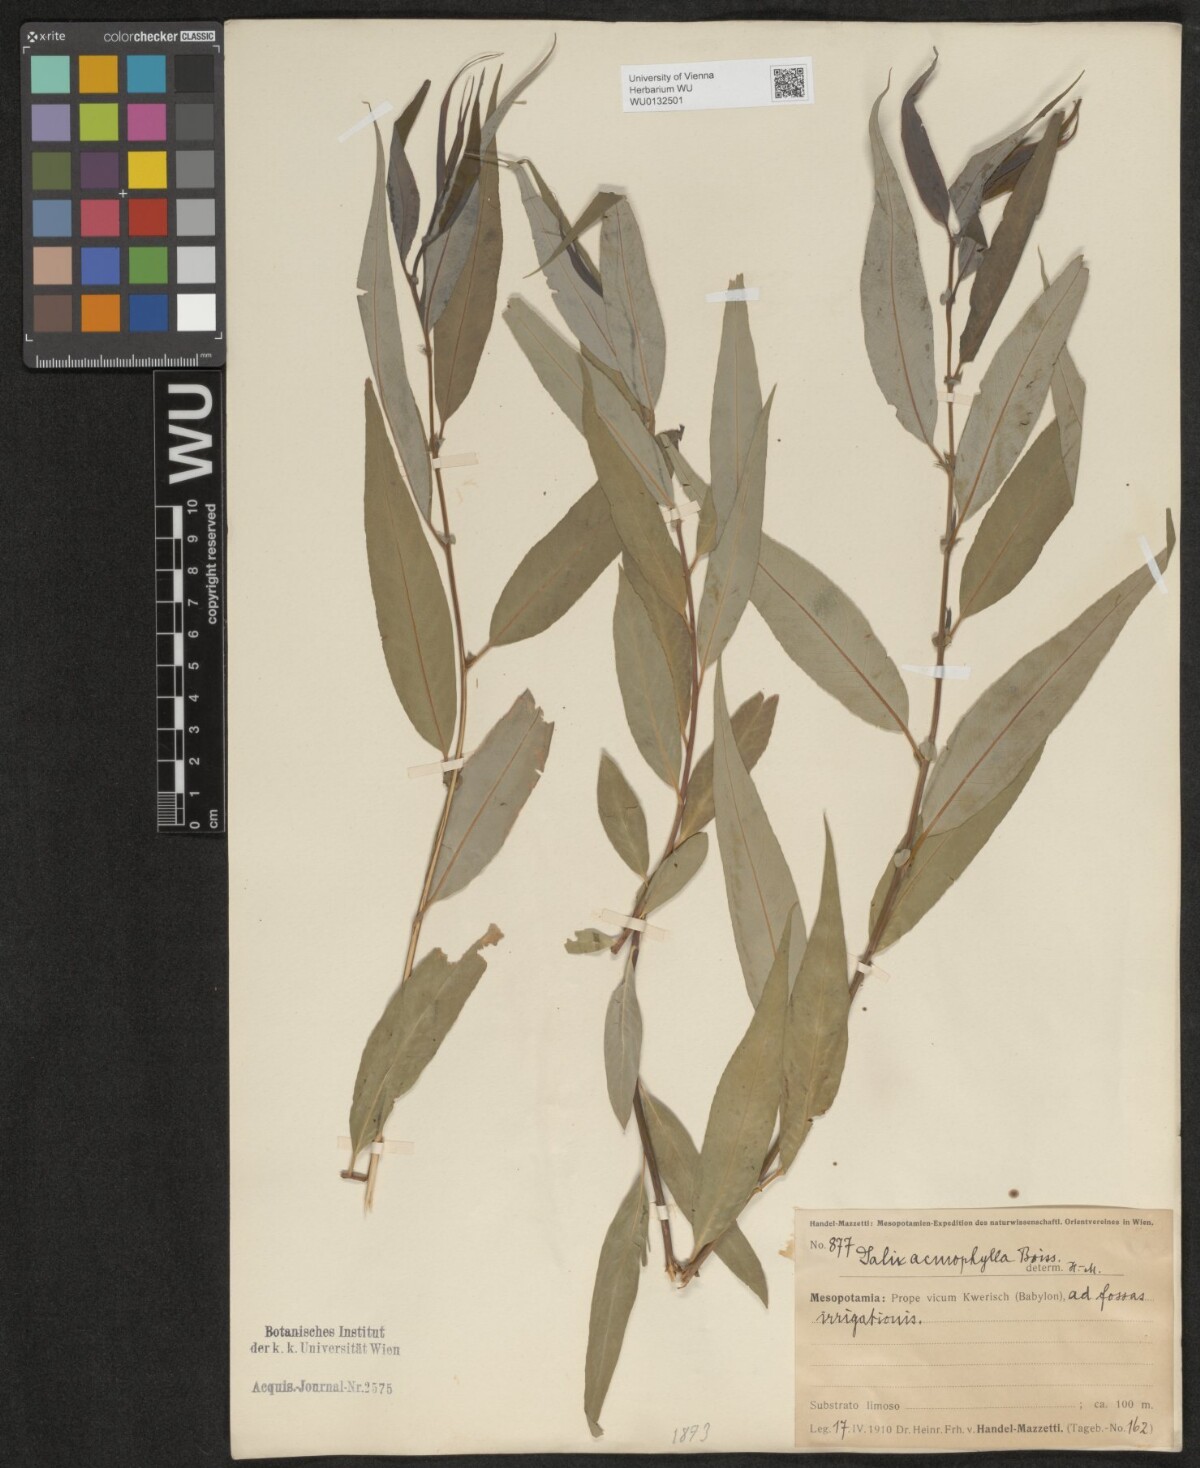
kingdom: Plantae
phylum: Tracheophyta
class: Magnoliopsida
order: Malpighiales
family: Salicaceae
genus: Salix
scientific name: Salix acmophylla
